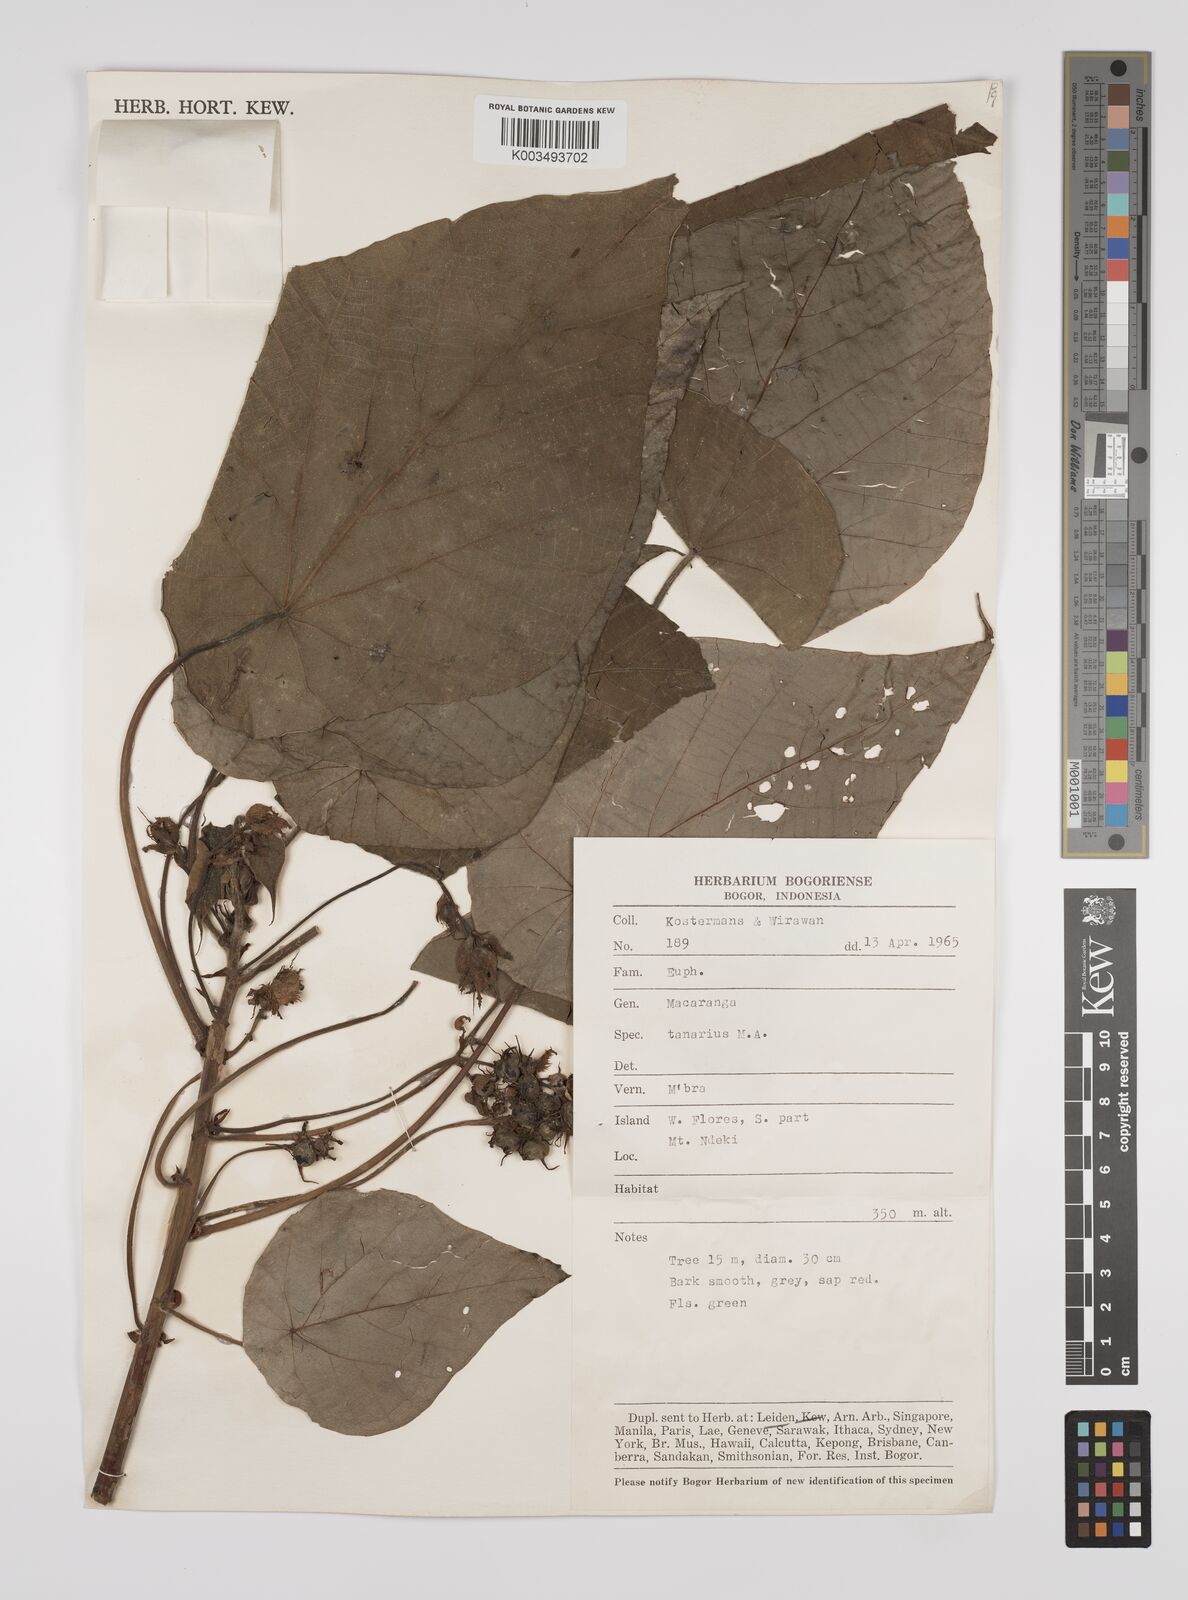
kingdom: Plantae
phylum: Tracheophyta
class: Magnoliopsida
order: Malpighiales
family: Euphorbiaceae
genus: Macaranga
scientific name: Macaranga tanarius
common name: Parasol leaf tree
